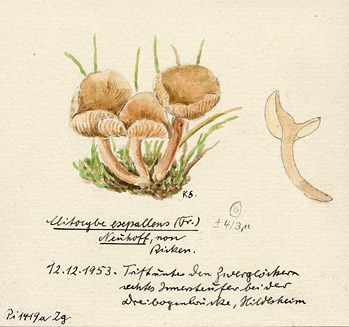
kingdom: Fungi
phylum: Basidiomycota
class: Agaricomycetes
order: Agaricales
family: Tricholomataceae
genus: Clitocybe
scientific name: Clitocybe subcordispora
